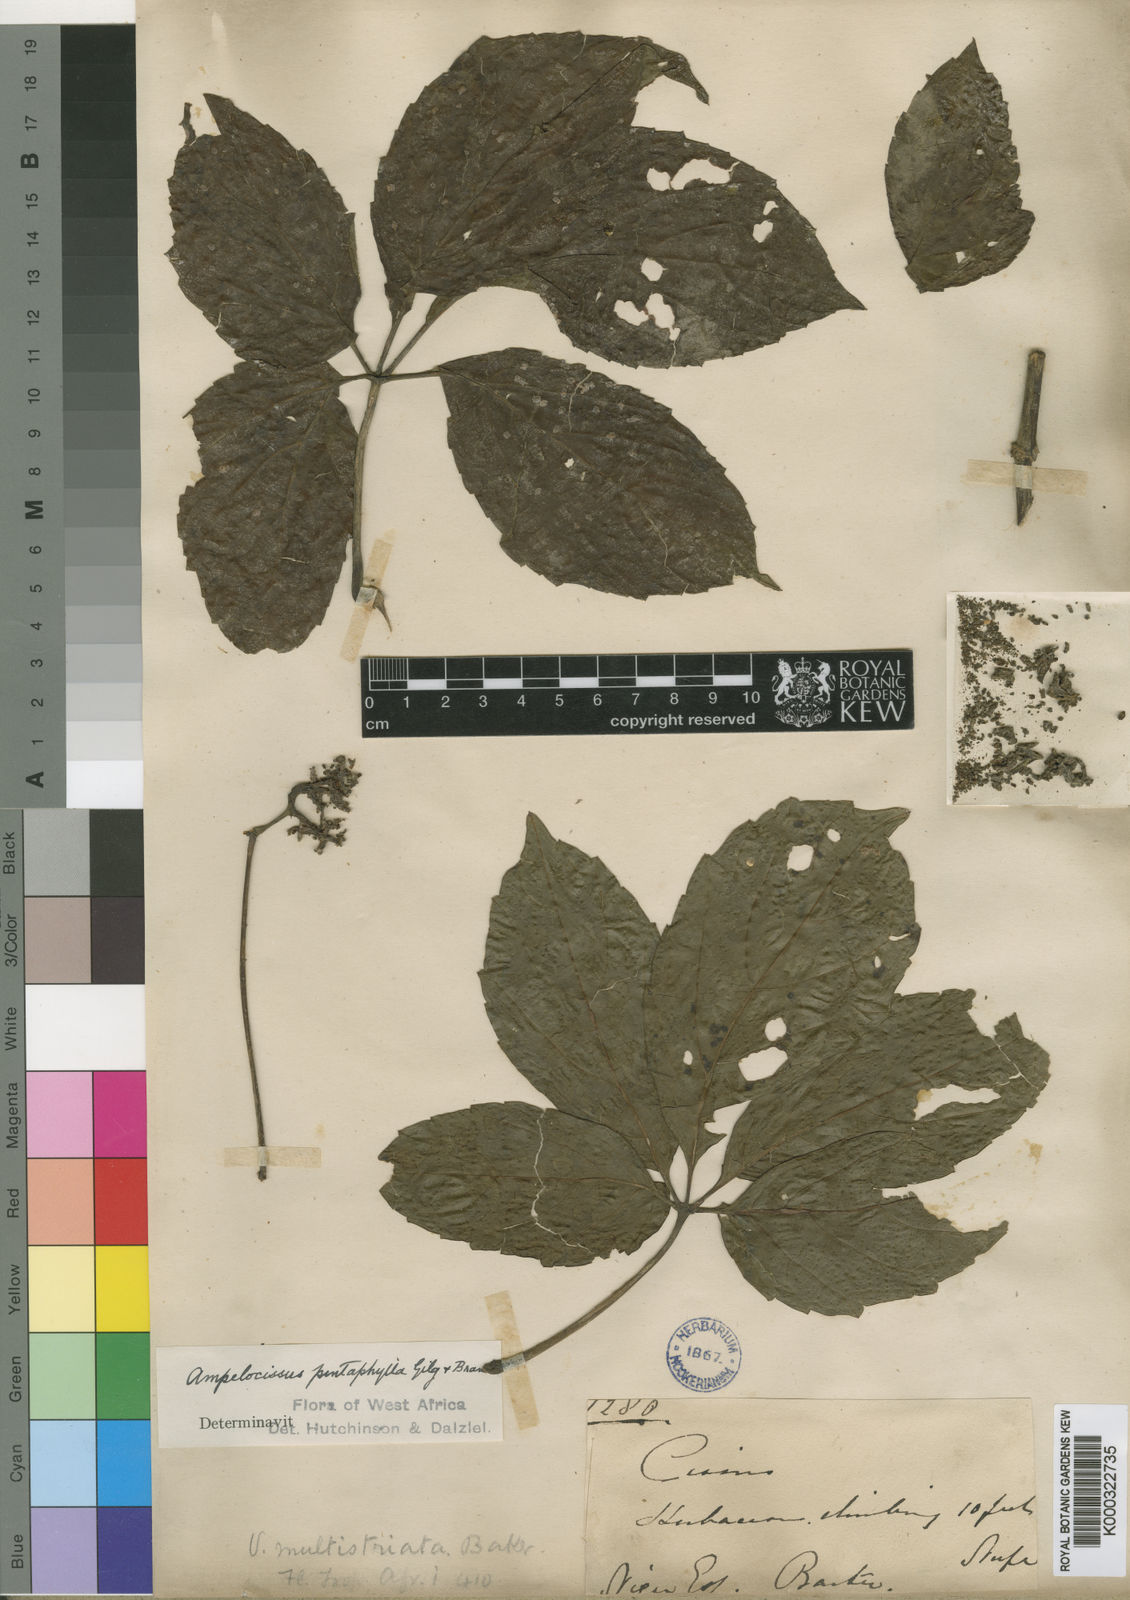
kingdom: Plantae
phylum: Tracheophyta
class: Magnoliopsida
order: Vitales
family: Vitaceae
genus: Ampelocissus
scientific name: Ampelocissus multistriata
